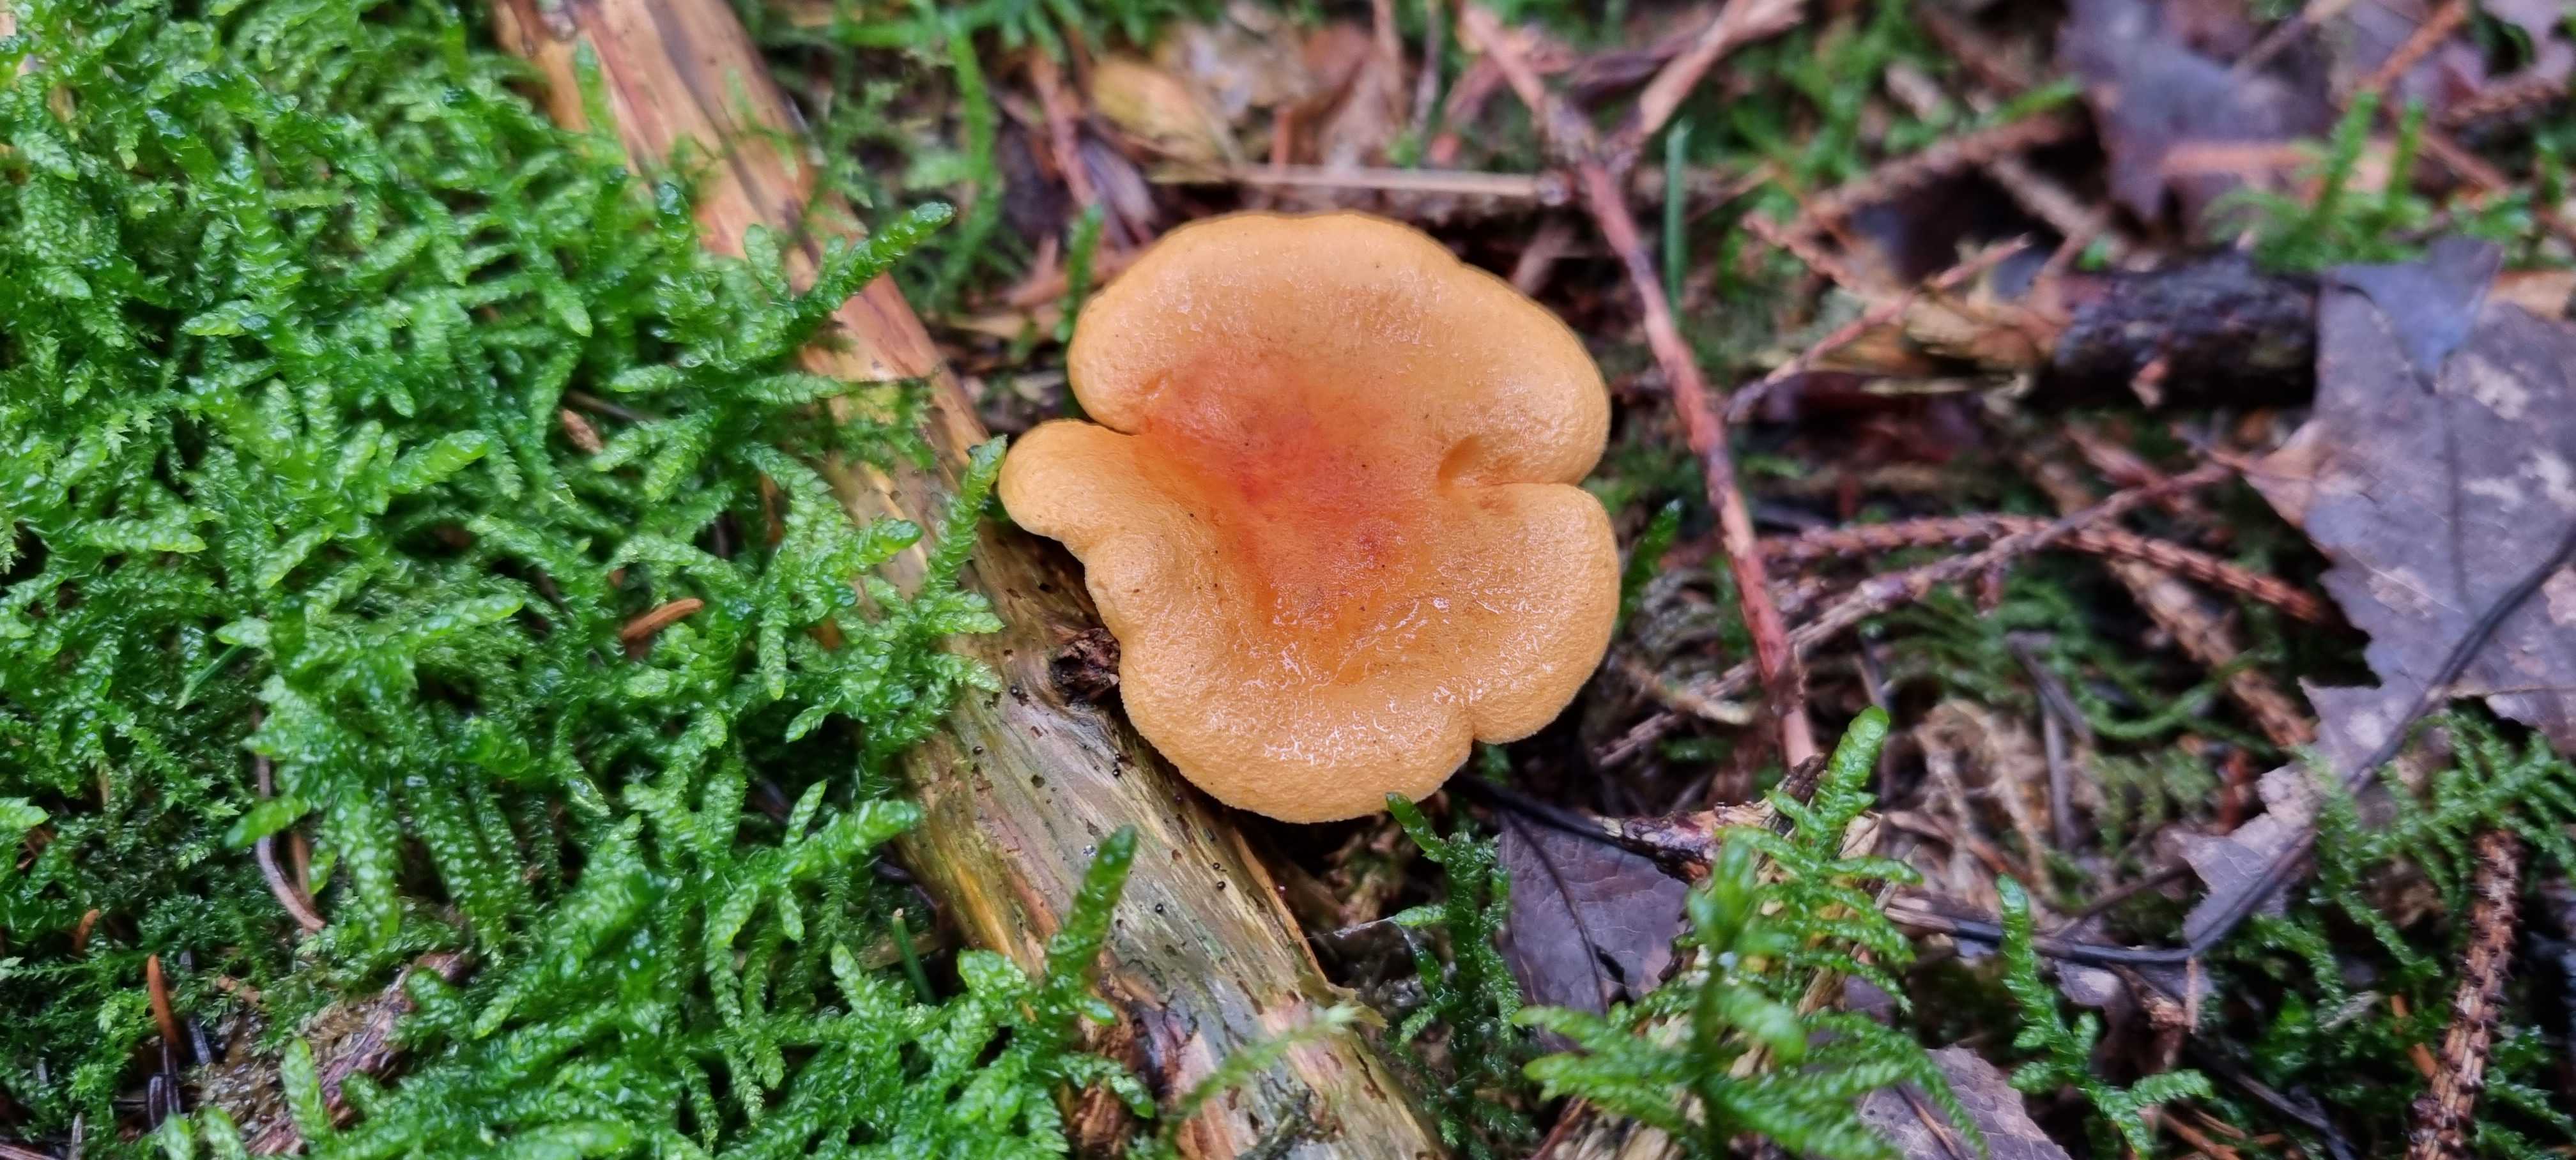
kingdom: Fungi
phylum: Basidiomycota
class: Agaricomycetes
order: Boletales
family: Hygrophoropsidaceae
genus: Hygrophoropsis
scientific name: Hygrophoropsis aurantiaca
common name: almindelig orangekantarel
